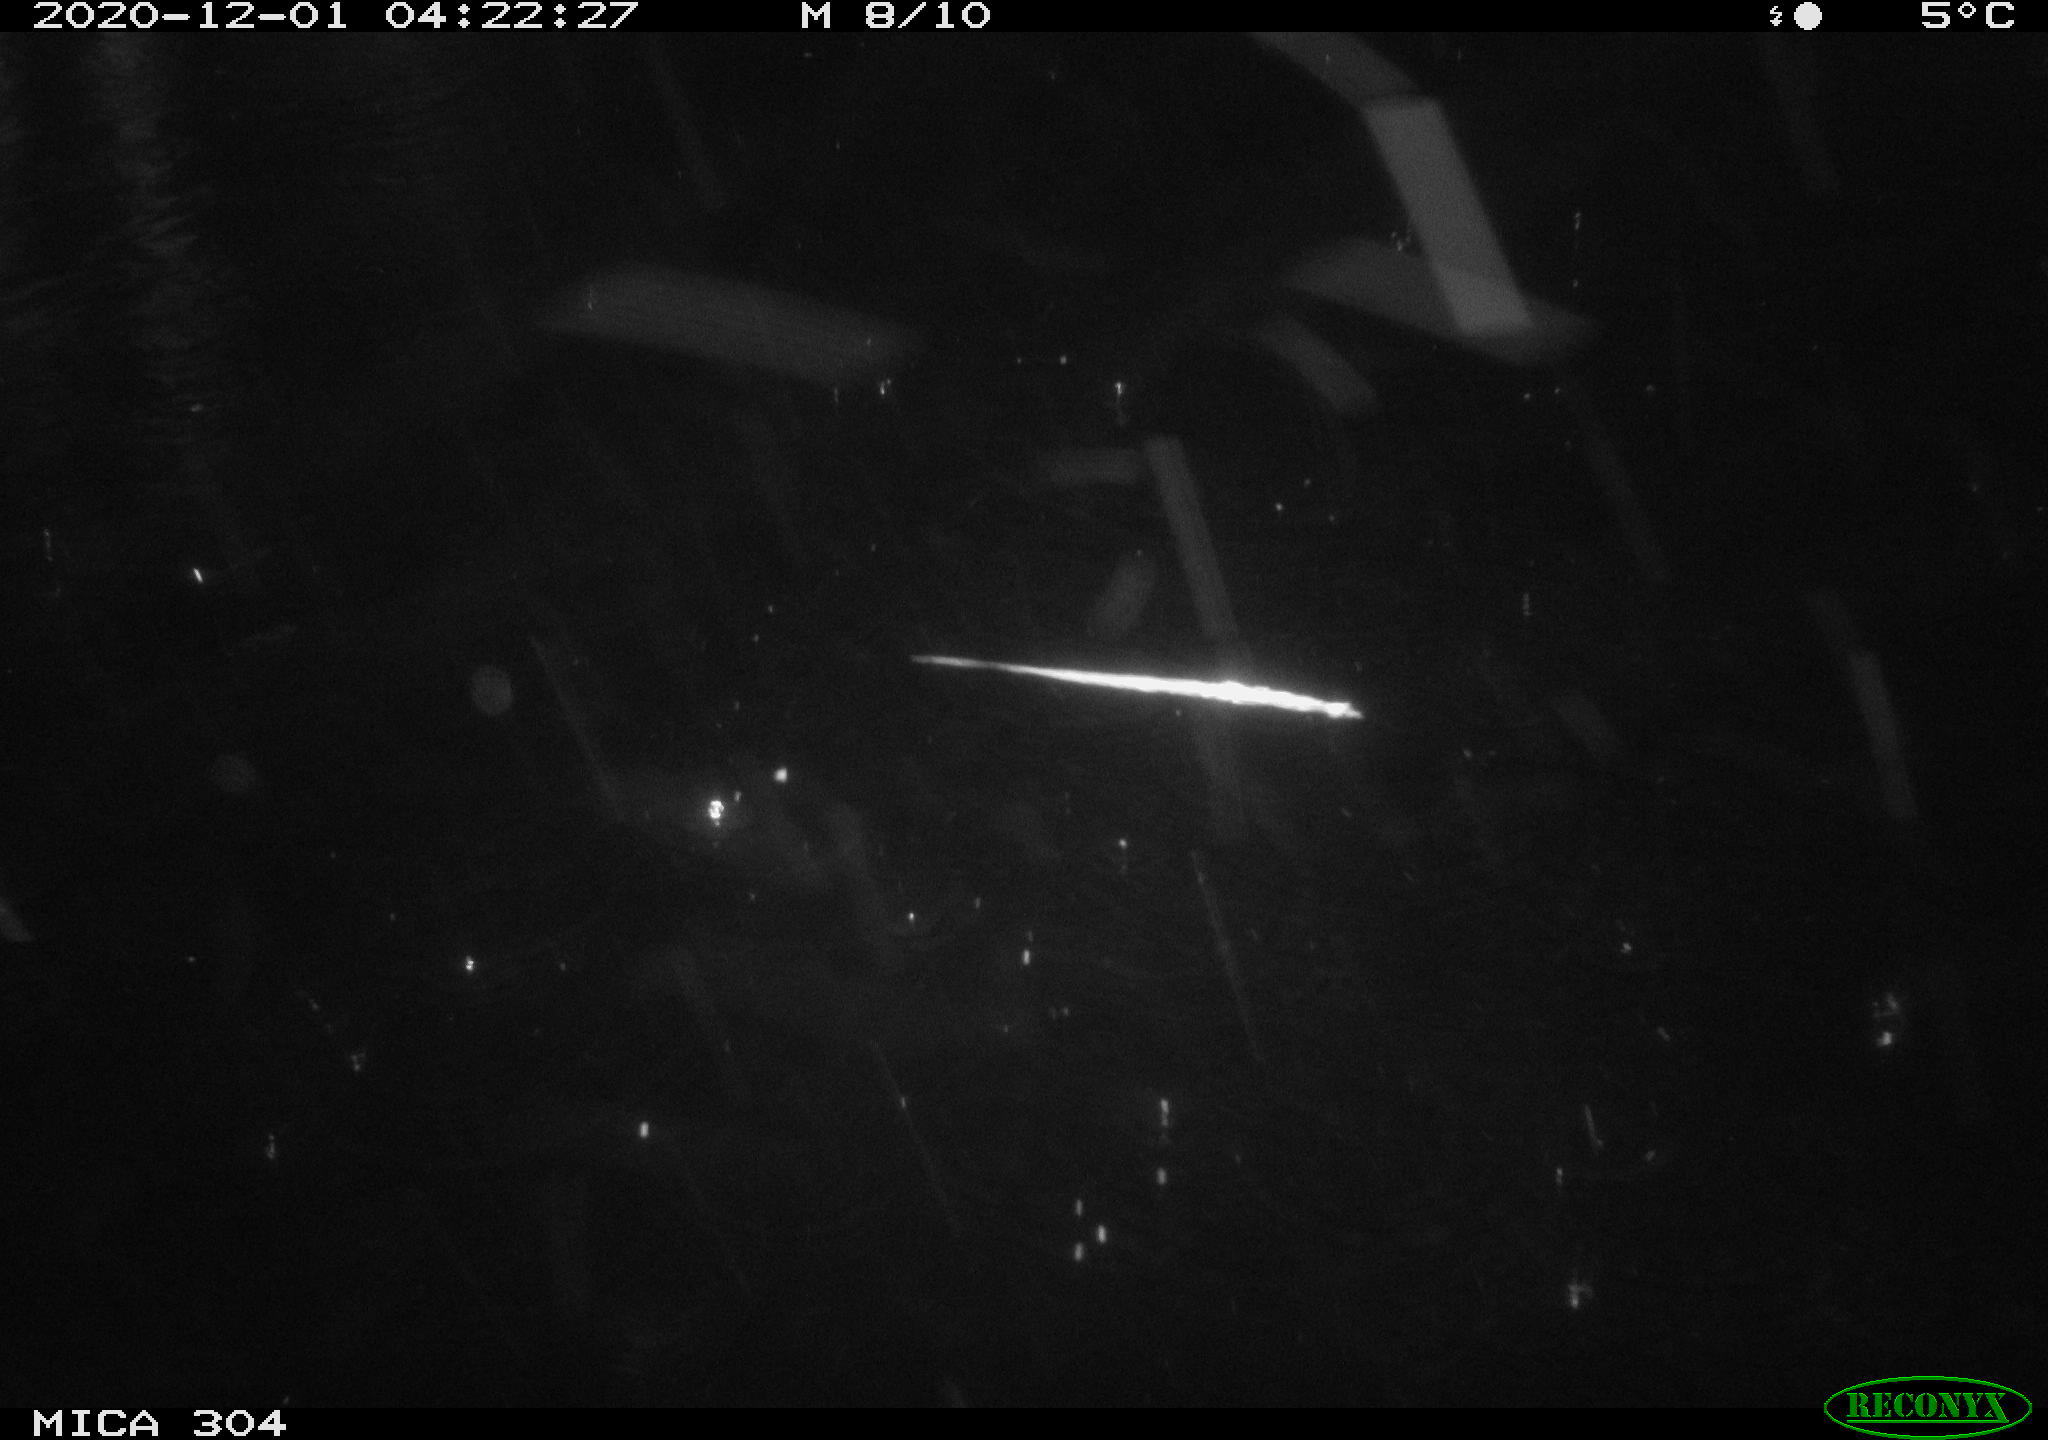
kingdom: Animalia
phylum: Chordata
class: Mammalia
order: Rodentia
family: Muridae
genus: Rattus
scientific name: Rattus norvegicus
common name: Brown rat
